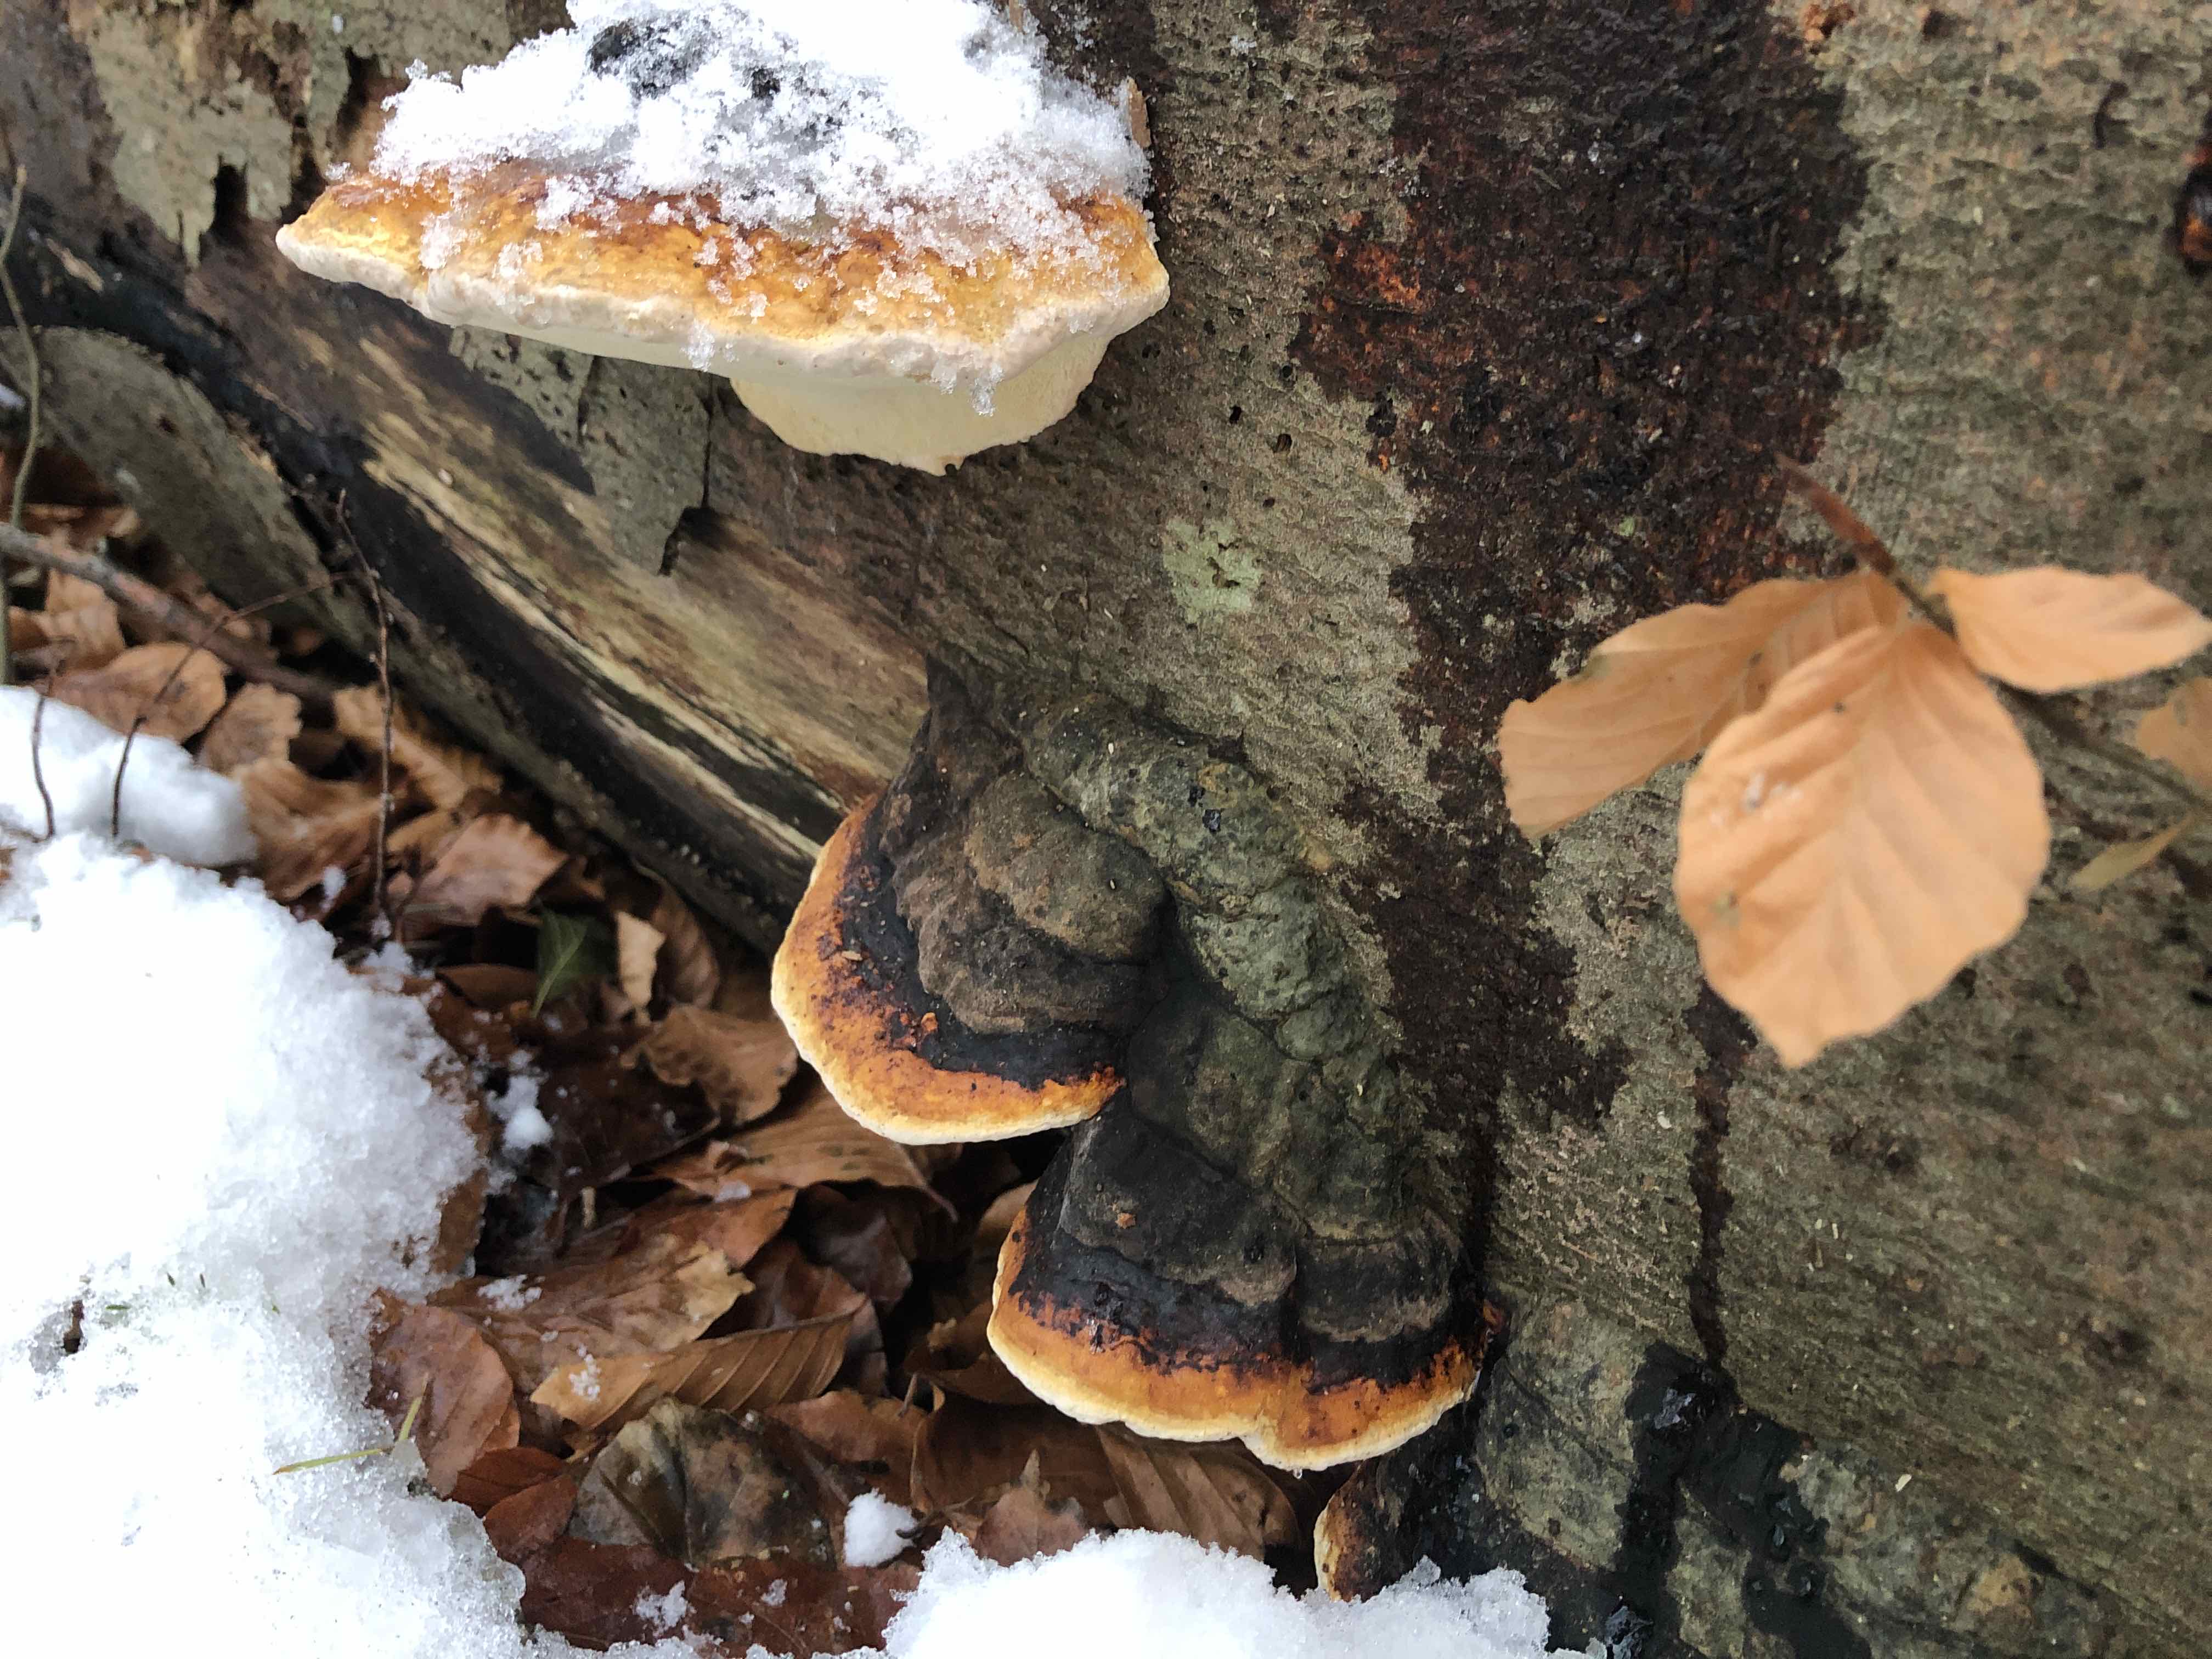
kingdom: Fungi
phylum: Basidiomycota
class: Agaricomycetes
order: Polyporales
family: Fomitopsidaceae
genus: Fomitopsis
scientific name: Fomitopsis pinicola
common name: randbæltet hovporesvamp
